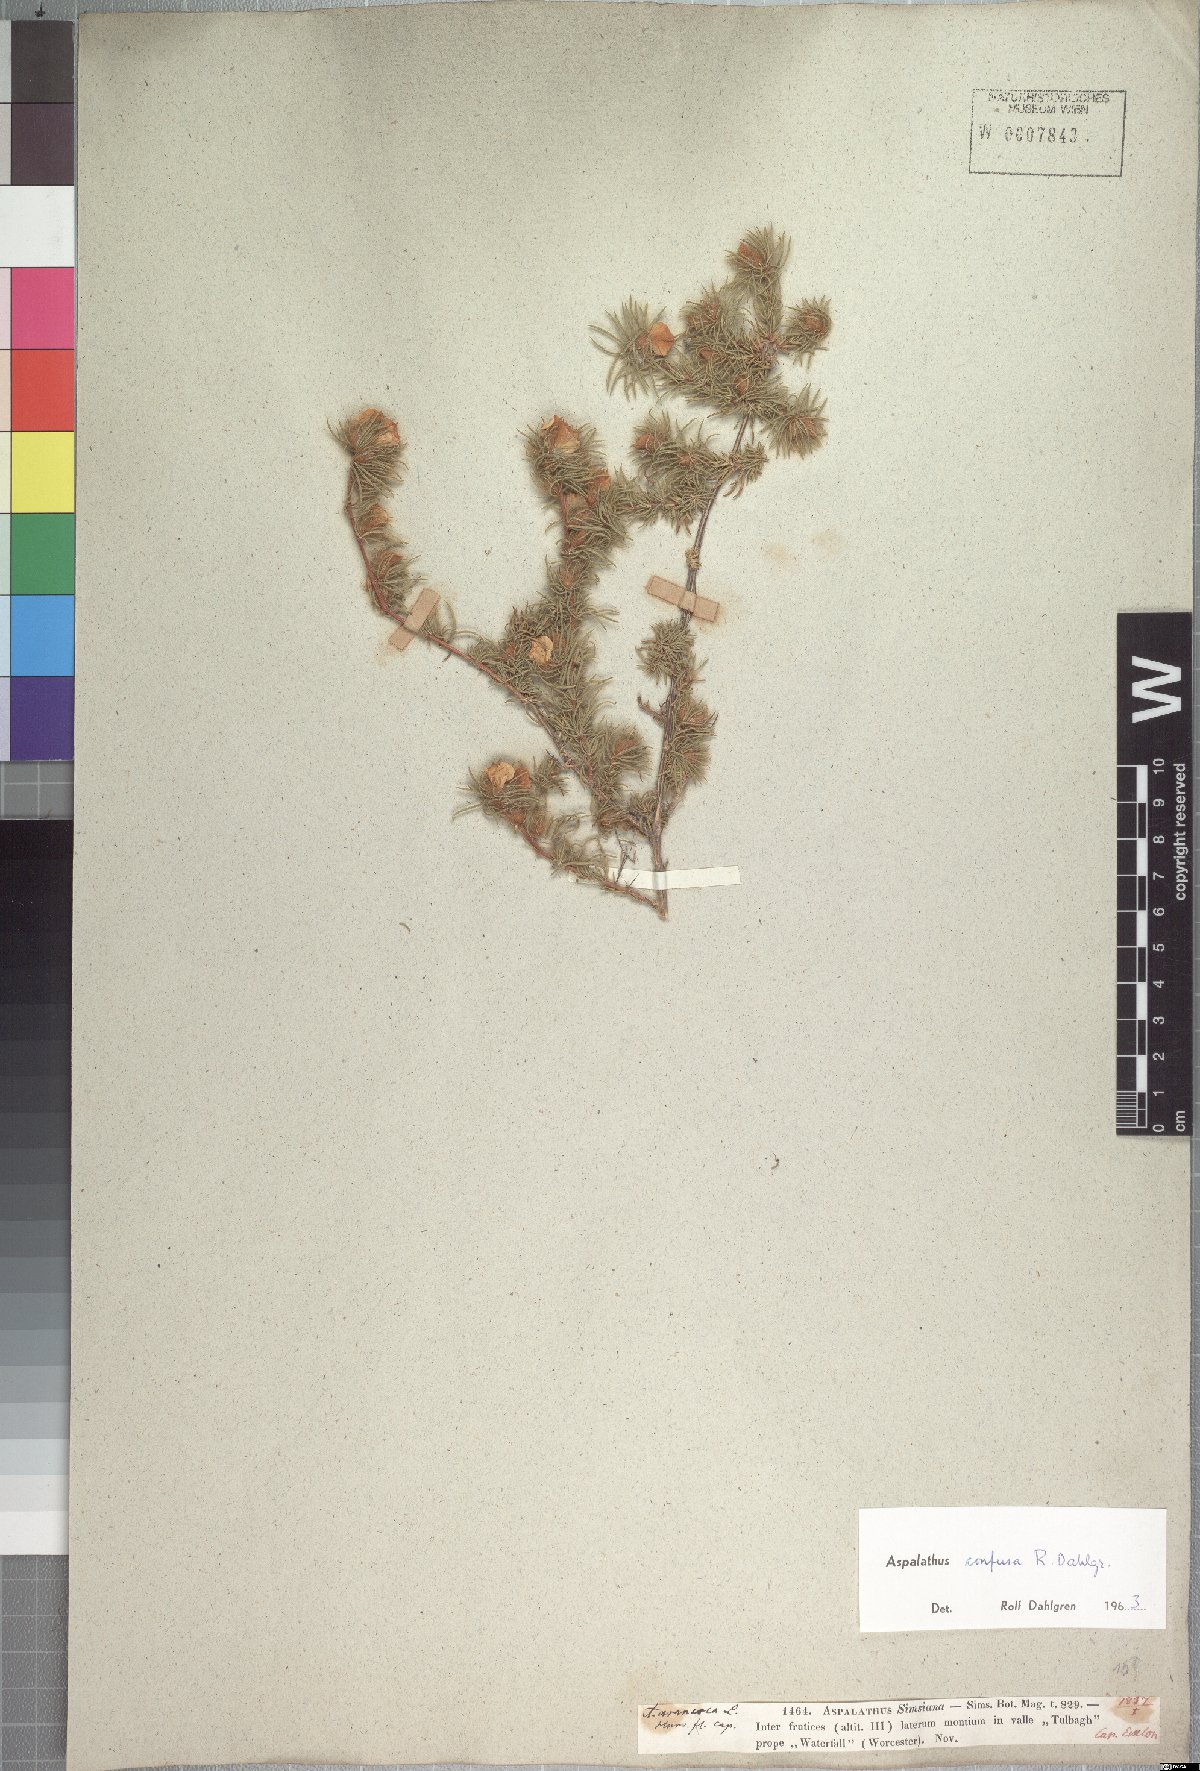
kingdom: Plantae
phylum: Tracheophyta
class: Magnoliopsida
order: Fabales
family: Fabaceae
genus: Aspalathus
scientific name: Aspalathus confusa
